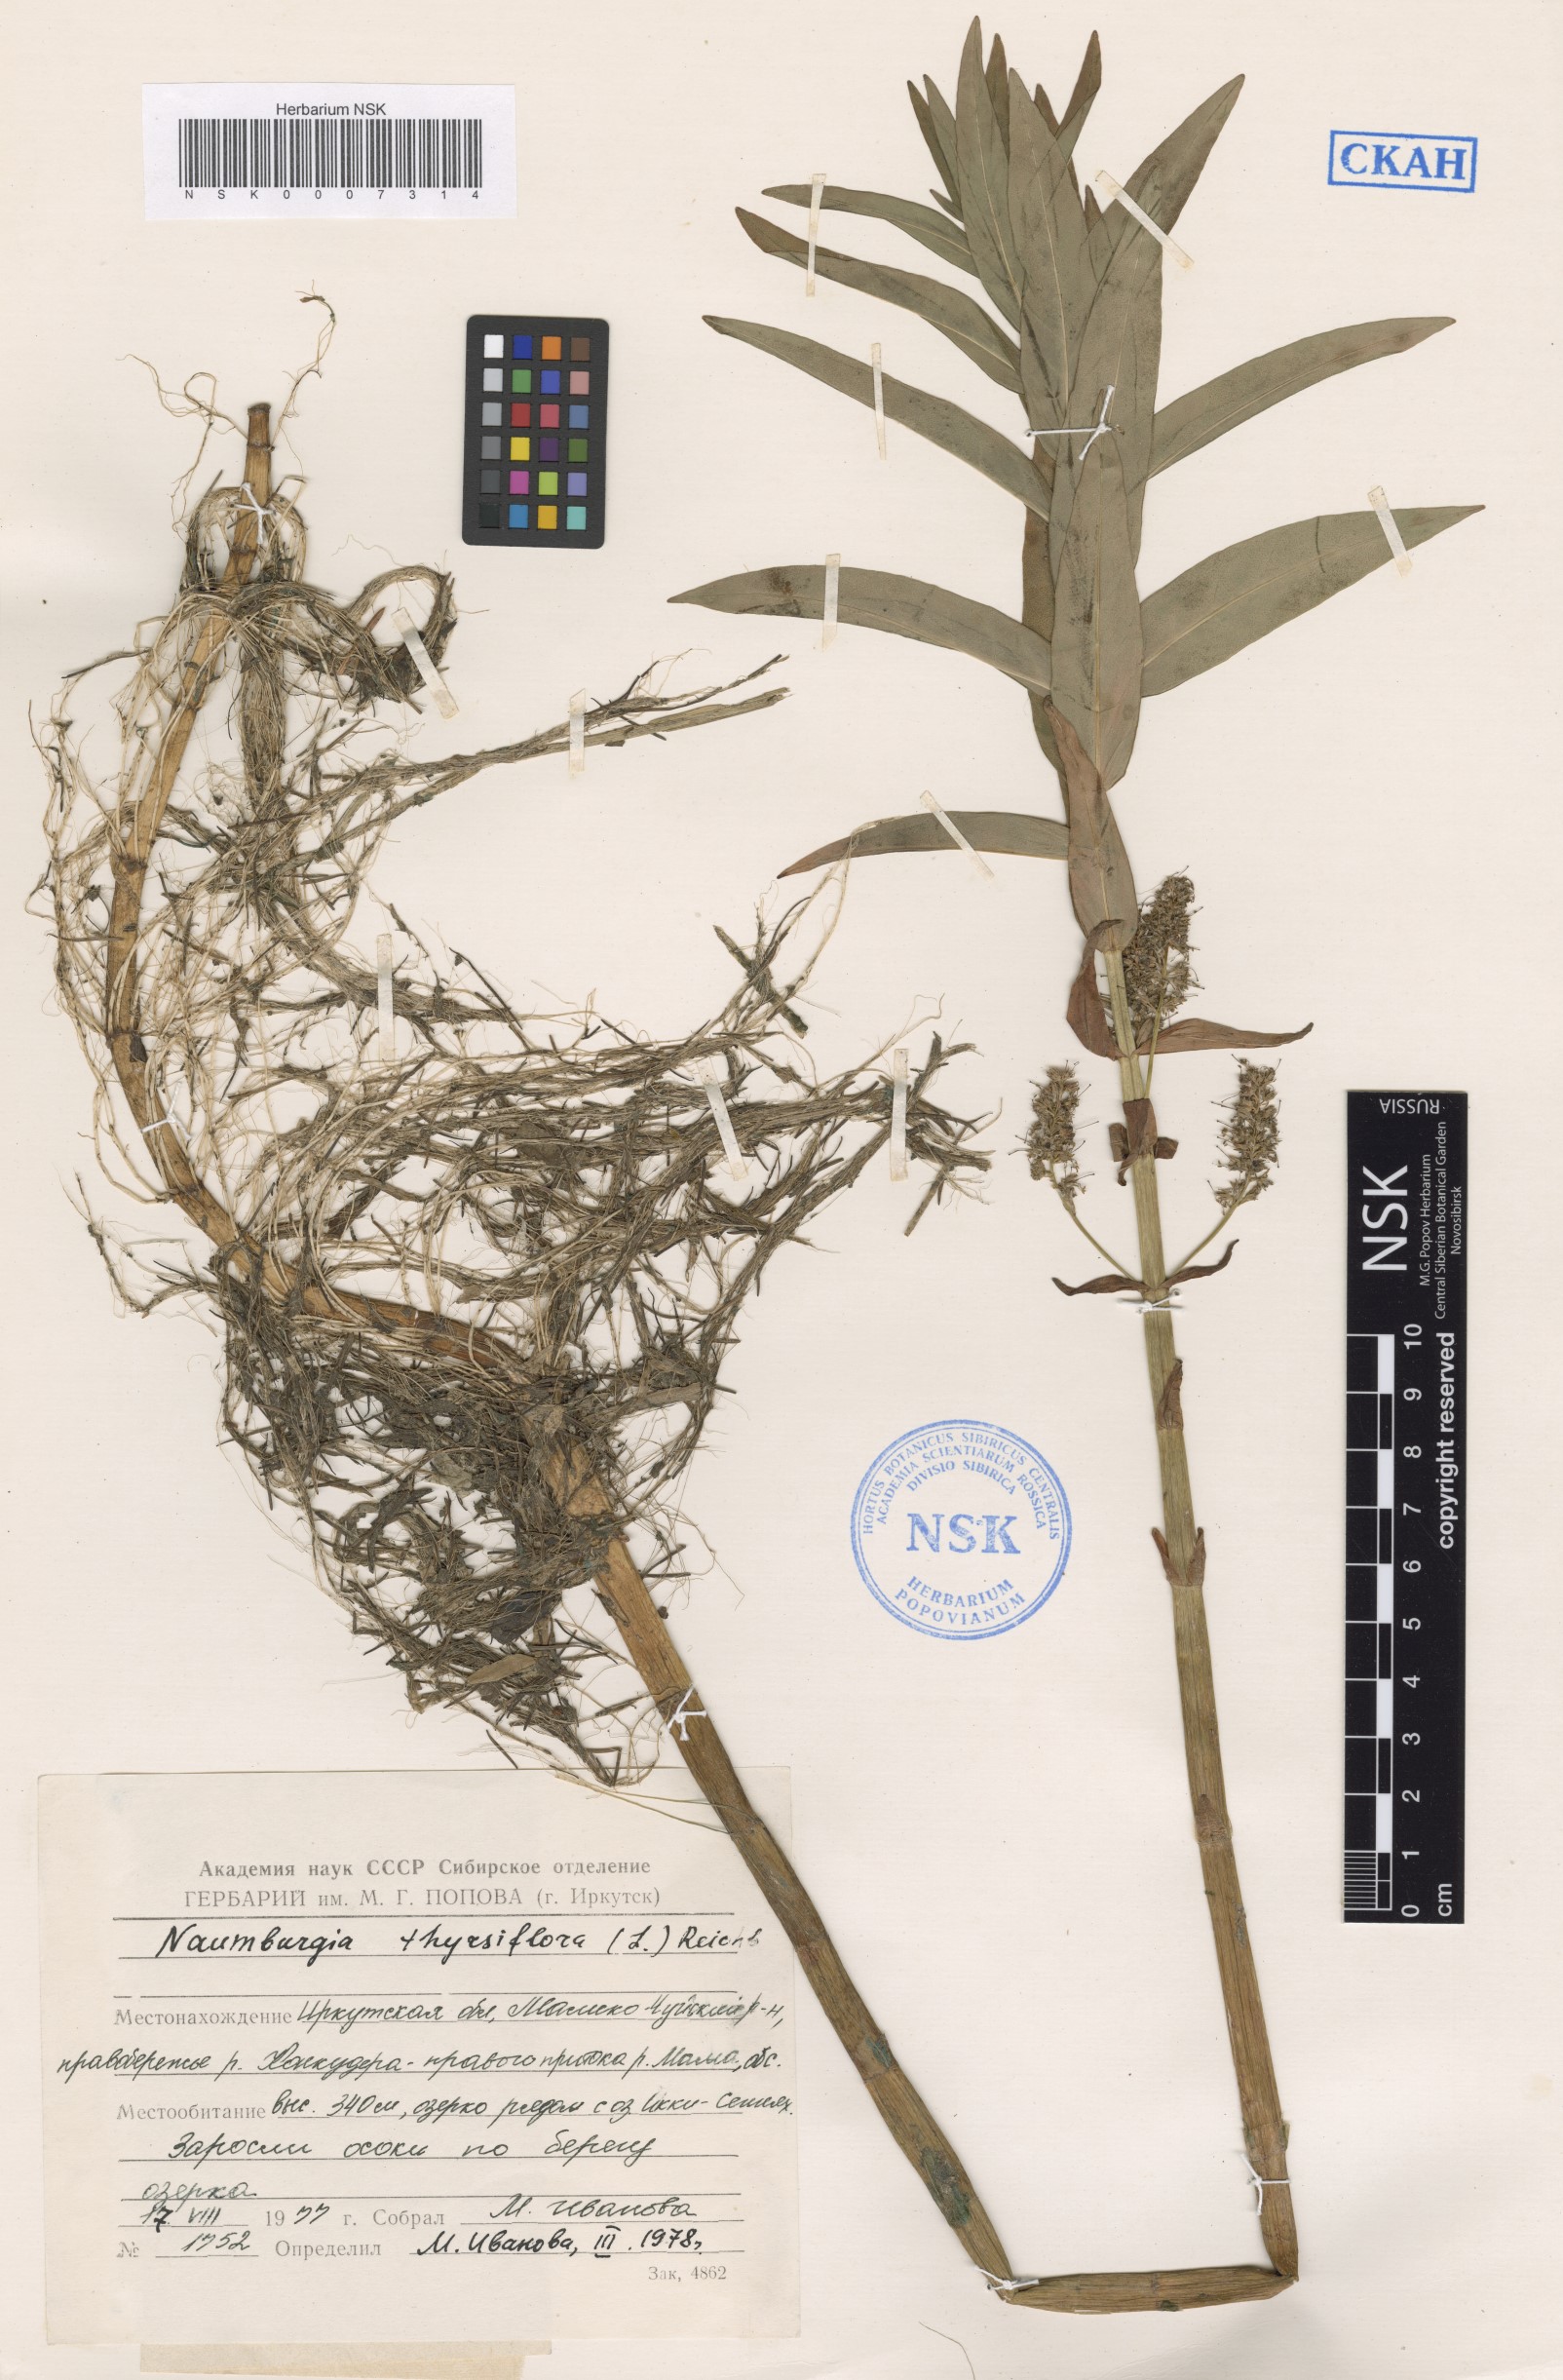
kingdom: Plantae
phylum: Tracheophyta
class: Magnoliopsida
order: Ericales
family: Primulaceae
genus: Lysimachia
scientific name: Lysimachia thyrsiflora
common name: Tufted loosestrife
